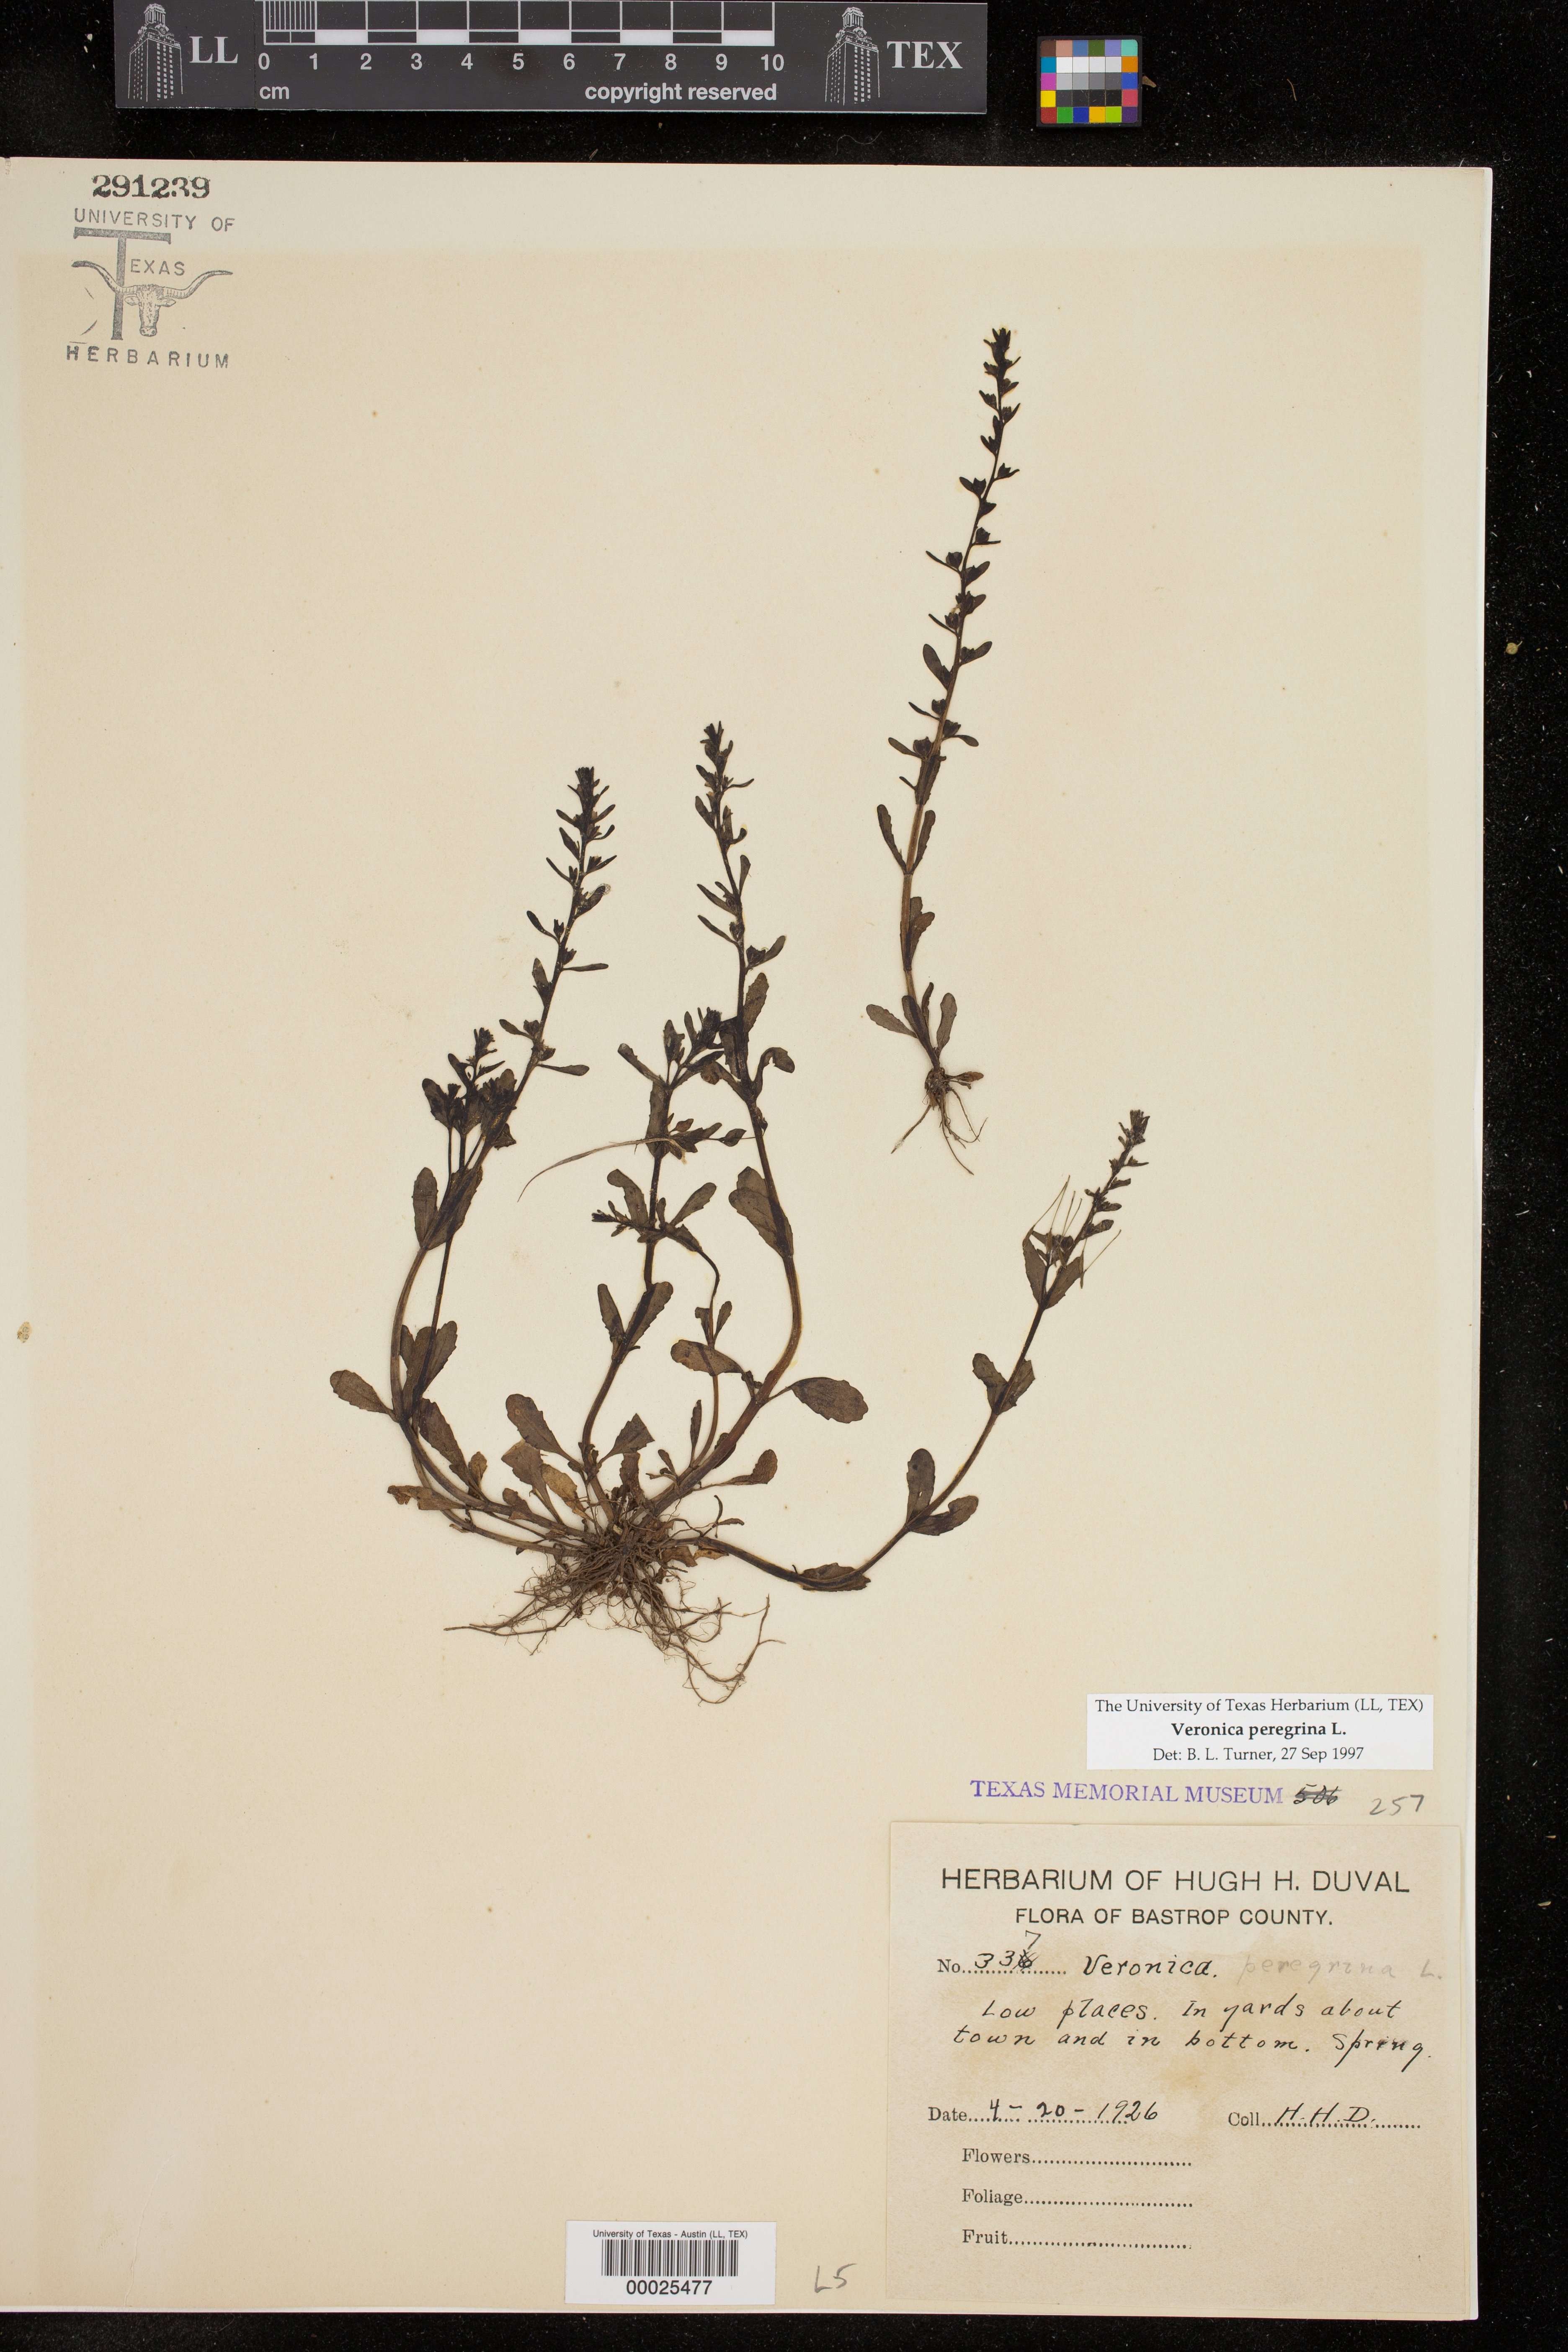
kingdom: Plantae
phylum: Tracheophyta
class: Magnoliopsida
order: Lamiales
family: Plantaginaceae
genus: Veronica
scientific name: Veronica peregrina
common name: Neckweed
